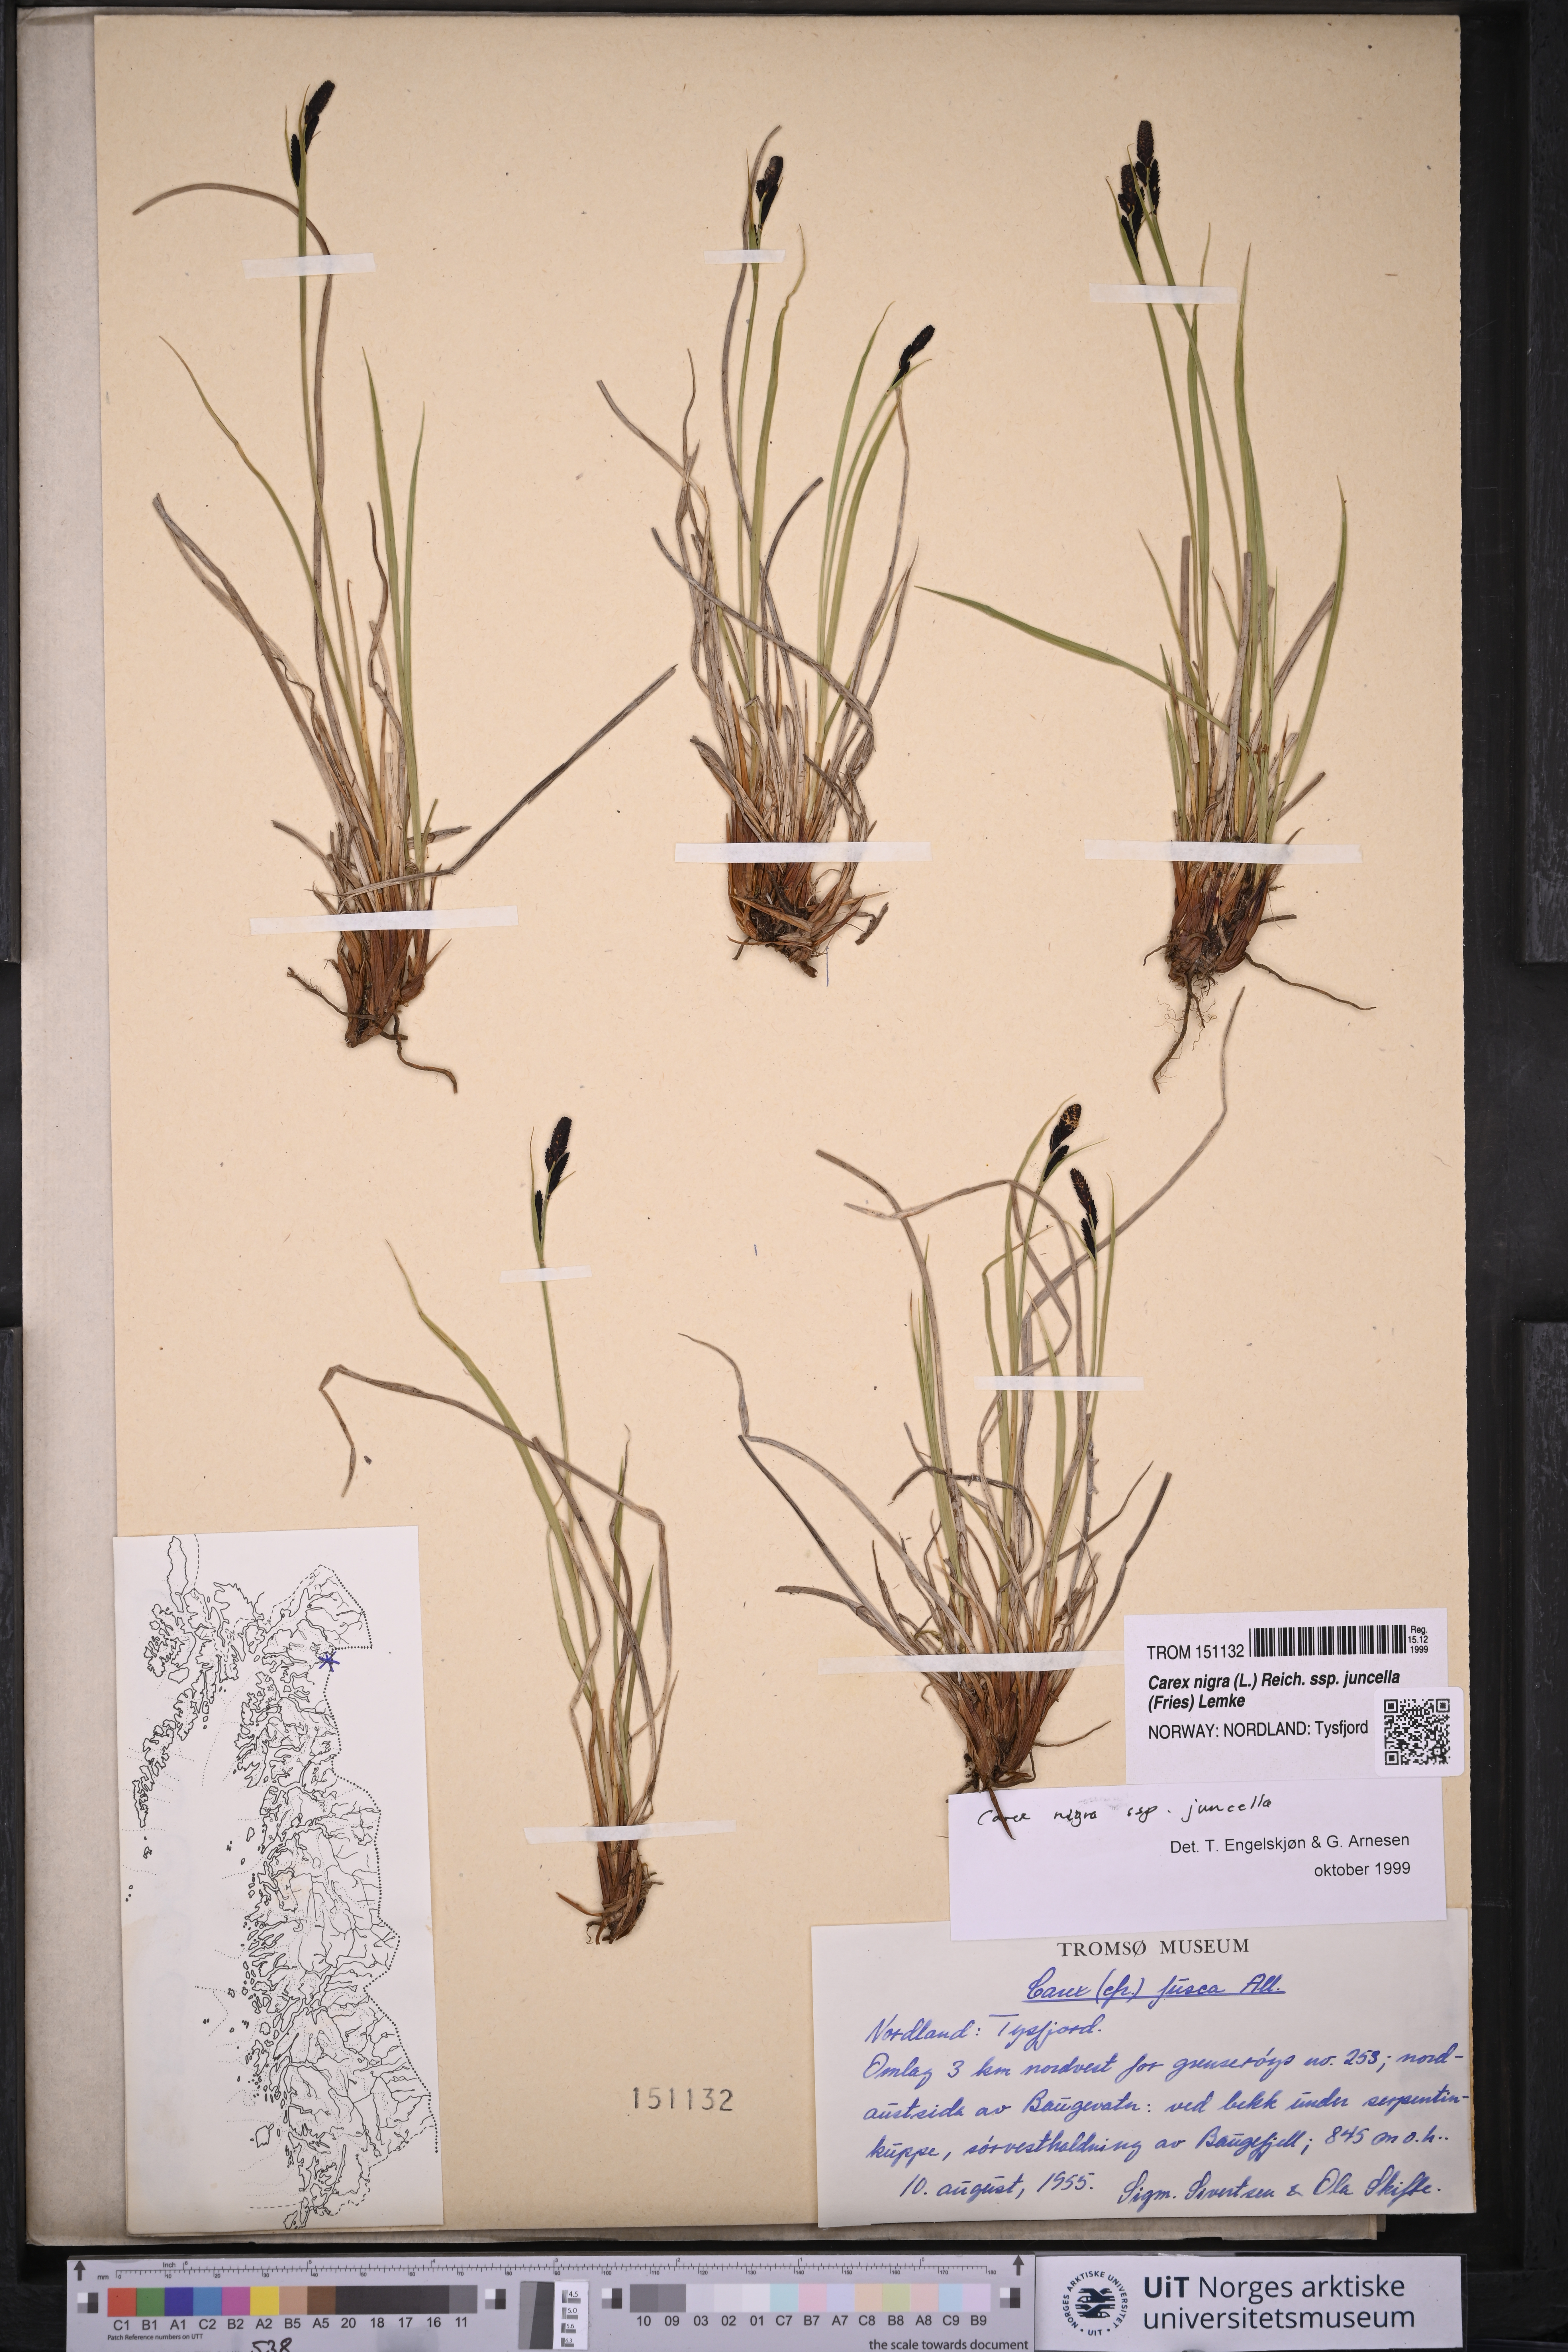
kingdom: Plantae
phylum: Tracheophyta
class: Liliopsida
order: Poales
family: Cyperaceae
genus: Carex
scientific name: Carex nigra
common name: Common sedge
